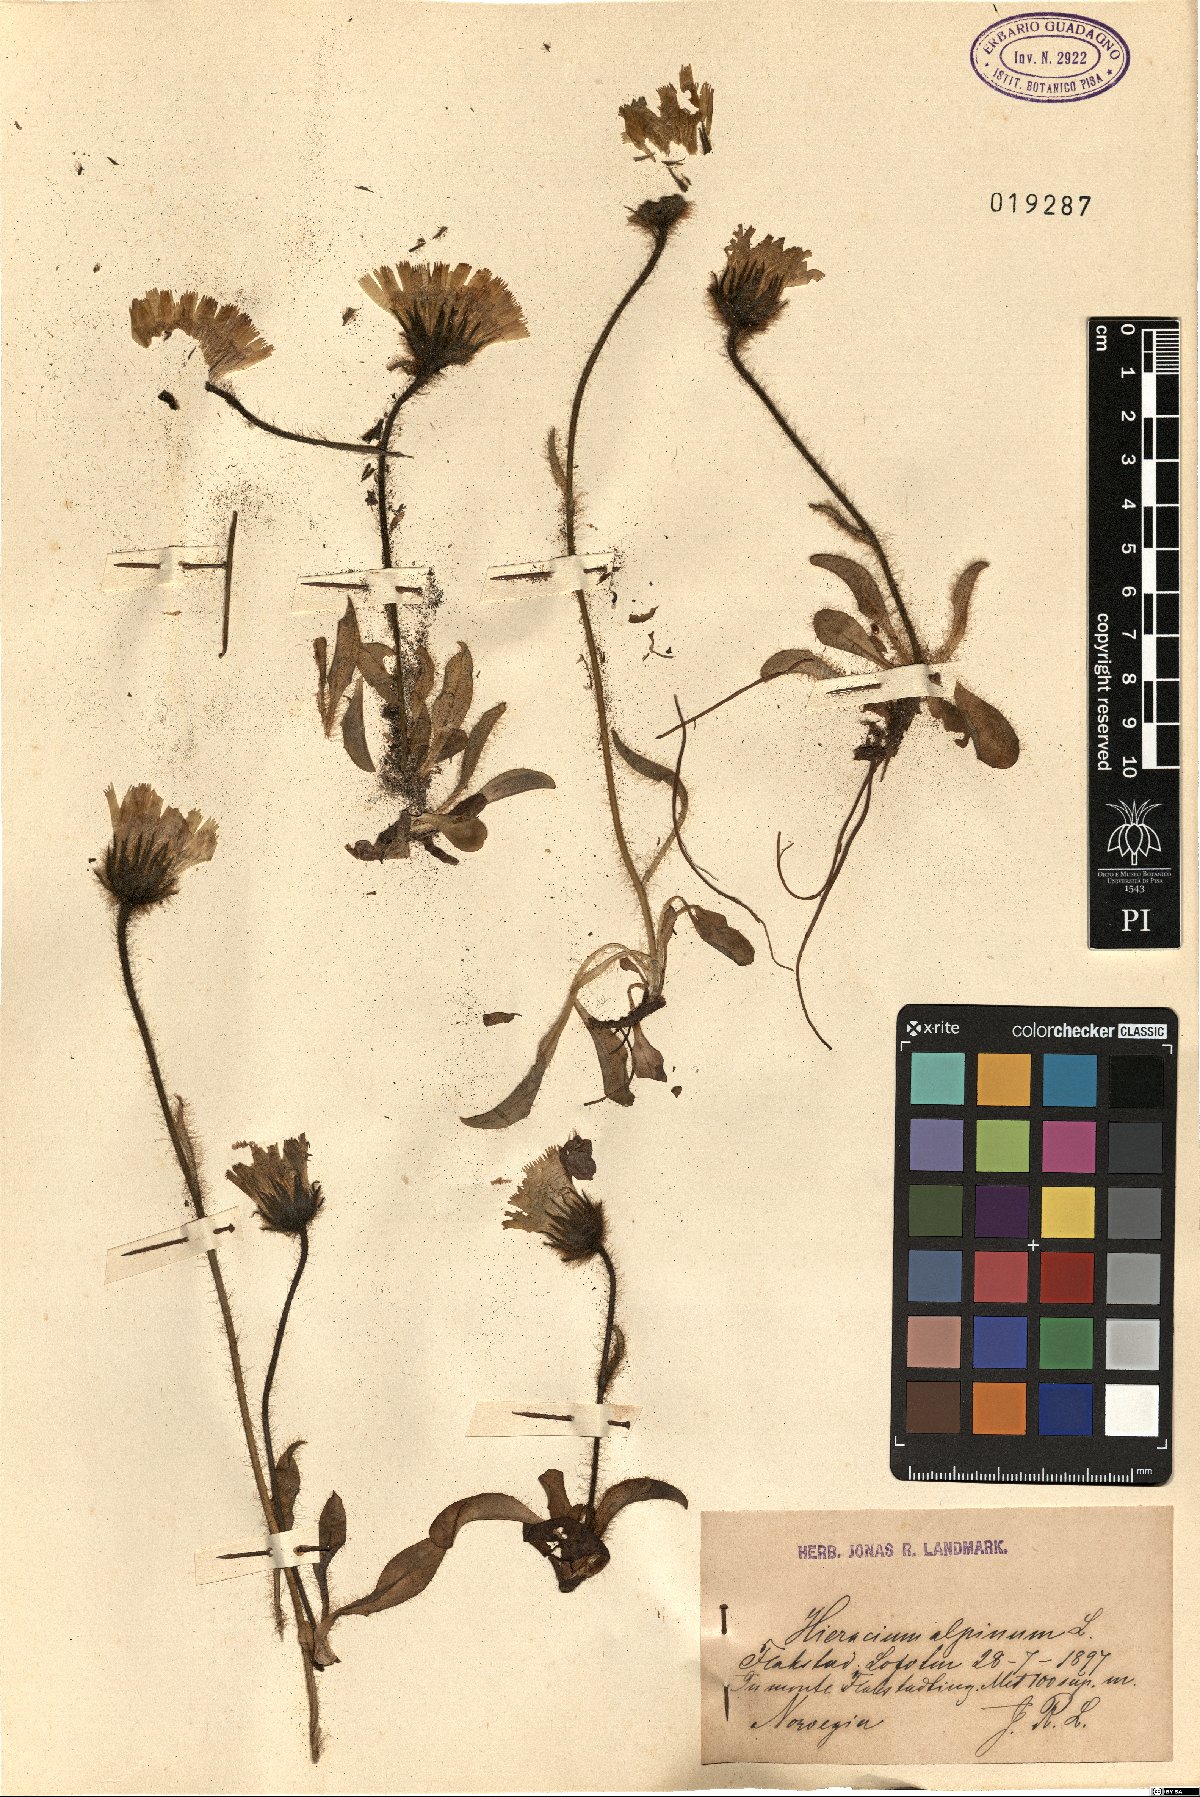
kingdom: Plantae
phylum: Tracheophyta
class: Magnoliopsida
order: Asterales
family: Asteraceae
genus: Hieracium
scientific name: Hieracium alpinum
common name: Alpine hawkweed
